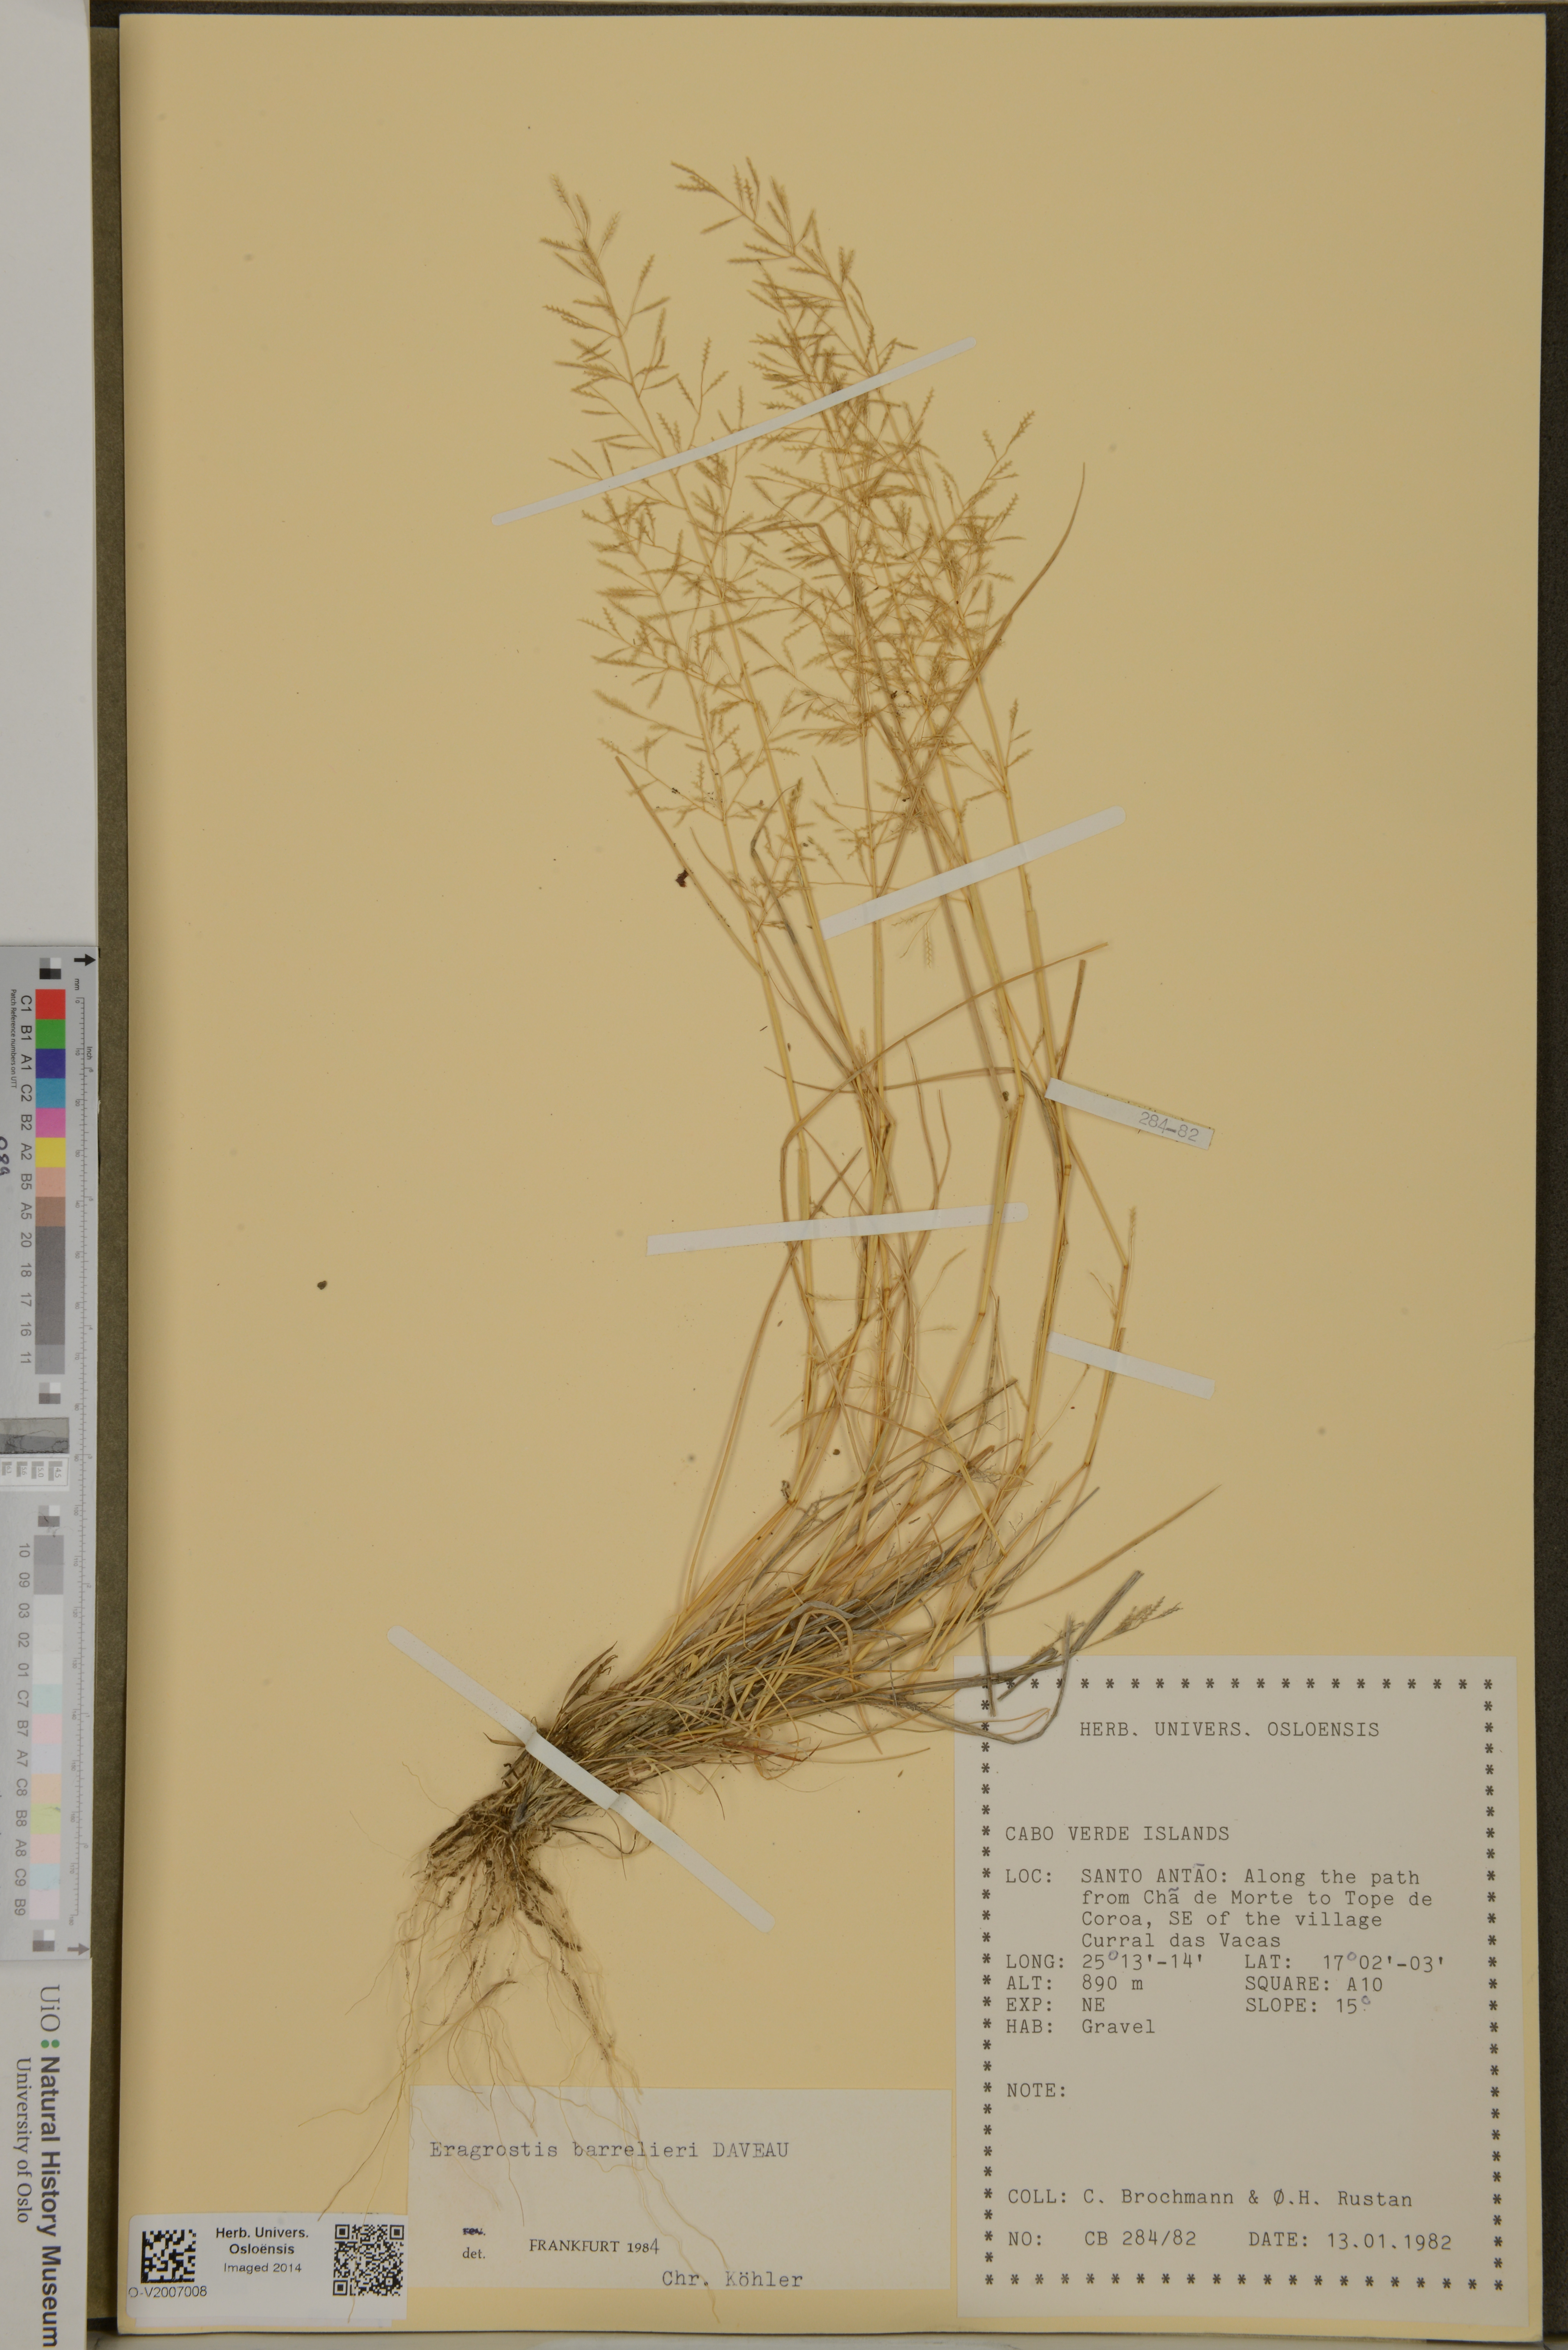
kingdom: Plantae
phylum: Tracheophyta
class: Liliopsida
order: Poales
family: Poaceae
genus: Eragrostis
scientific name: Eragrostis barrelieri
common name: Mediterranean lovegrass
